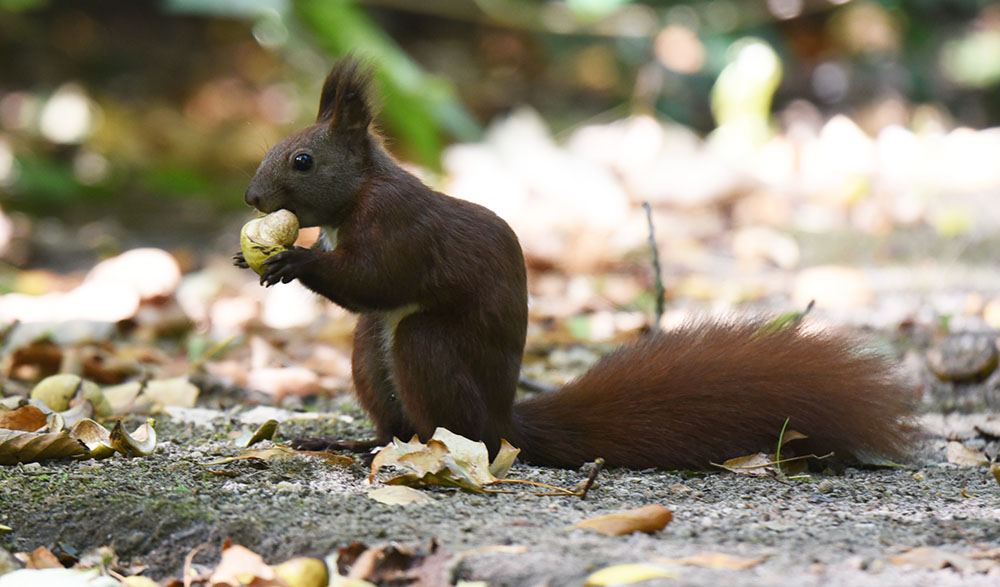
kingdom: Animalia
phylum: Chordata
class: Mammalia
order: Rodentia
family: Sciuridae
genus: Sciurus
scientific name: Sciurus vulgaris
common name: Eurasian red squirrel
